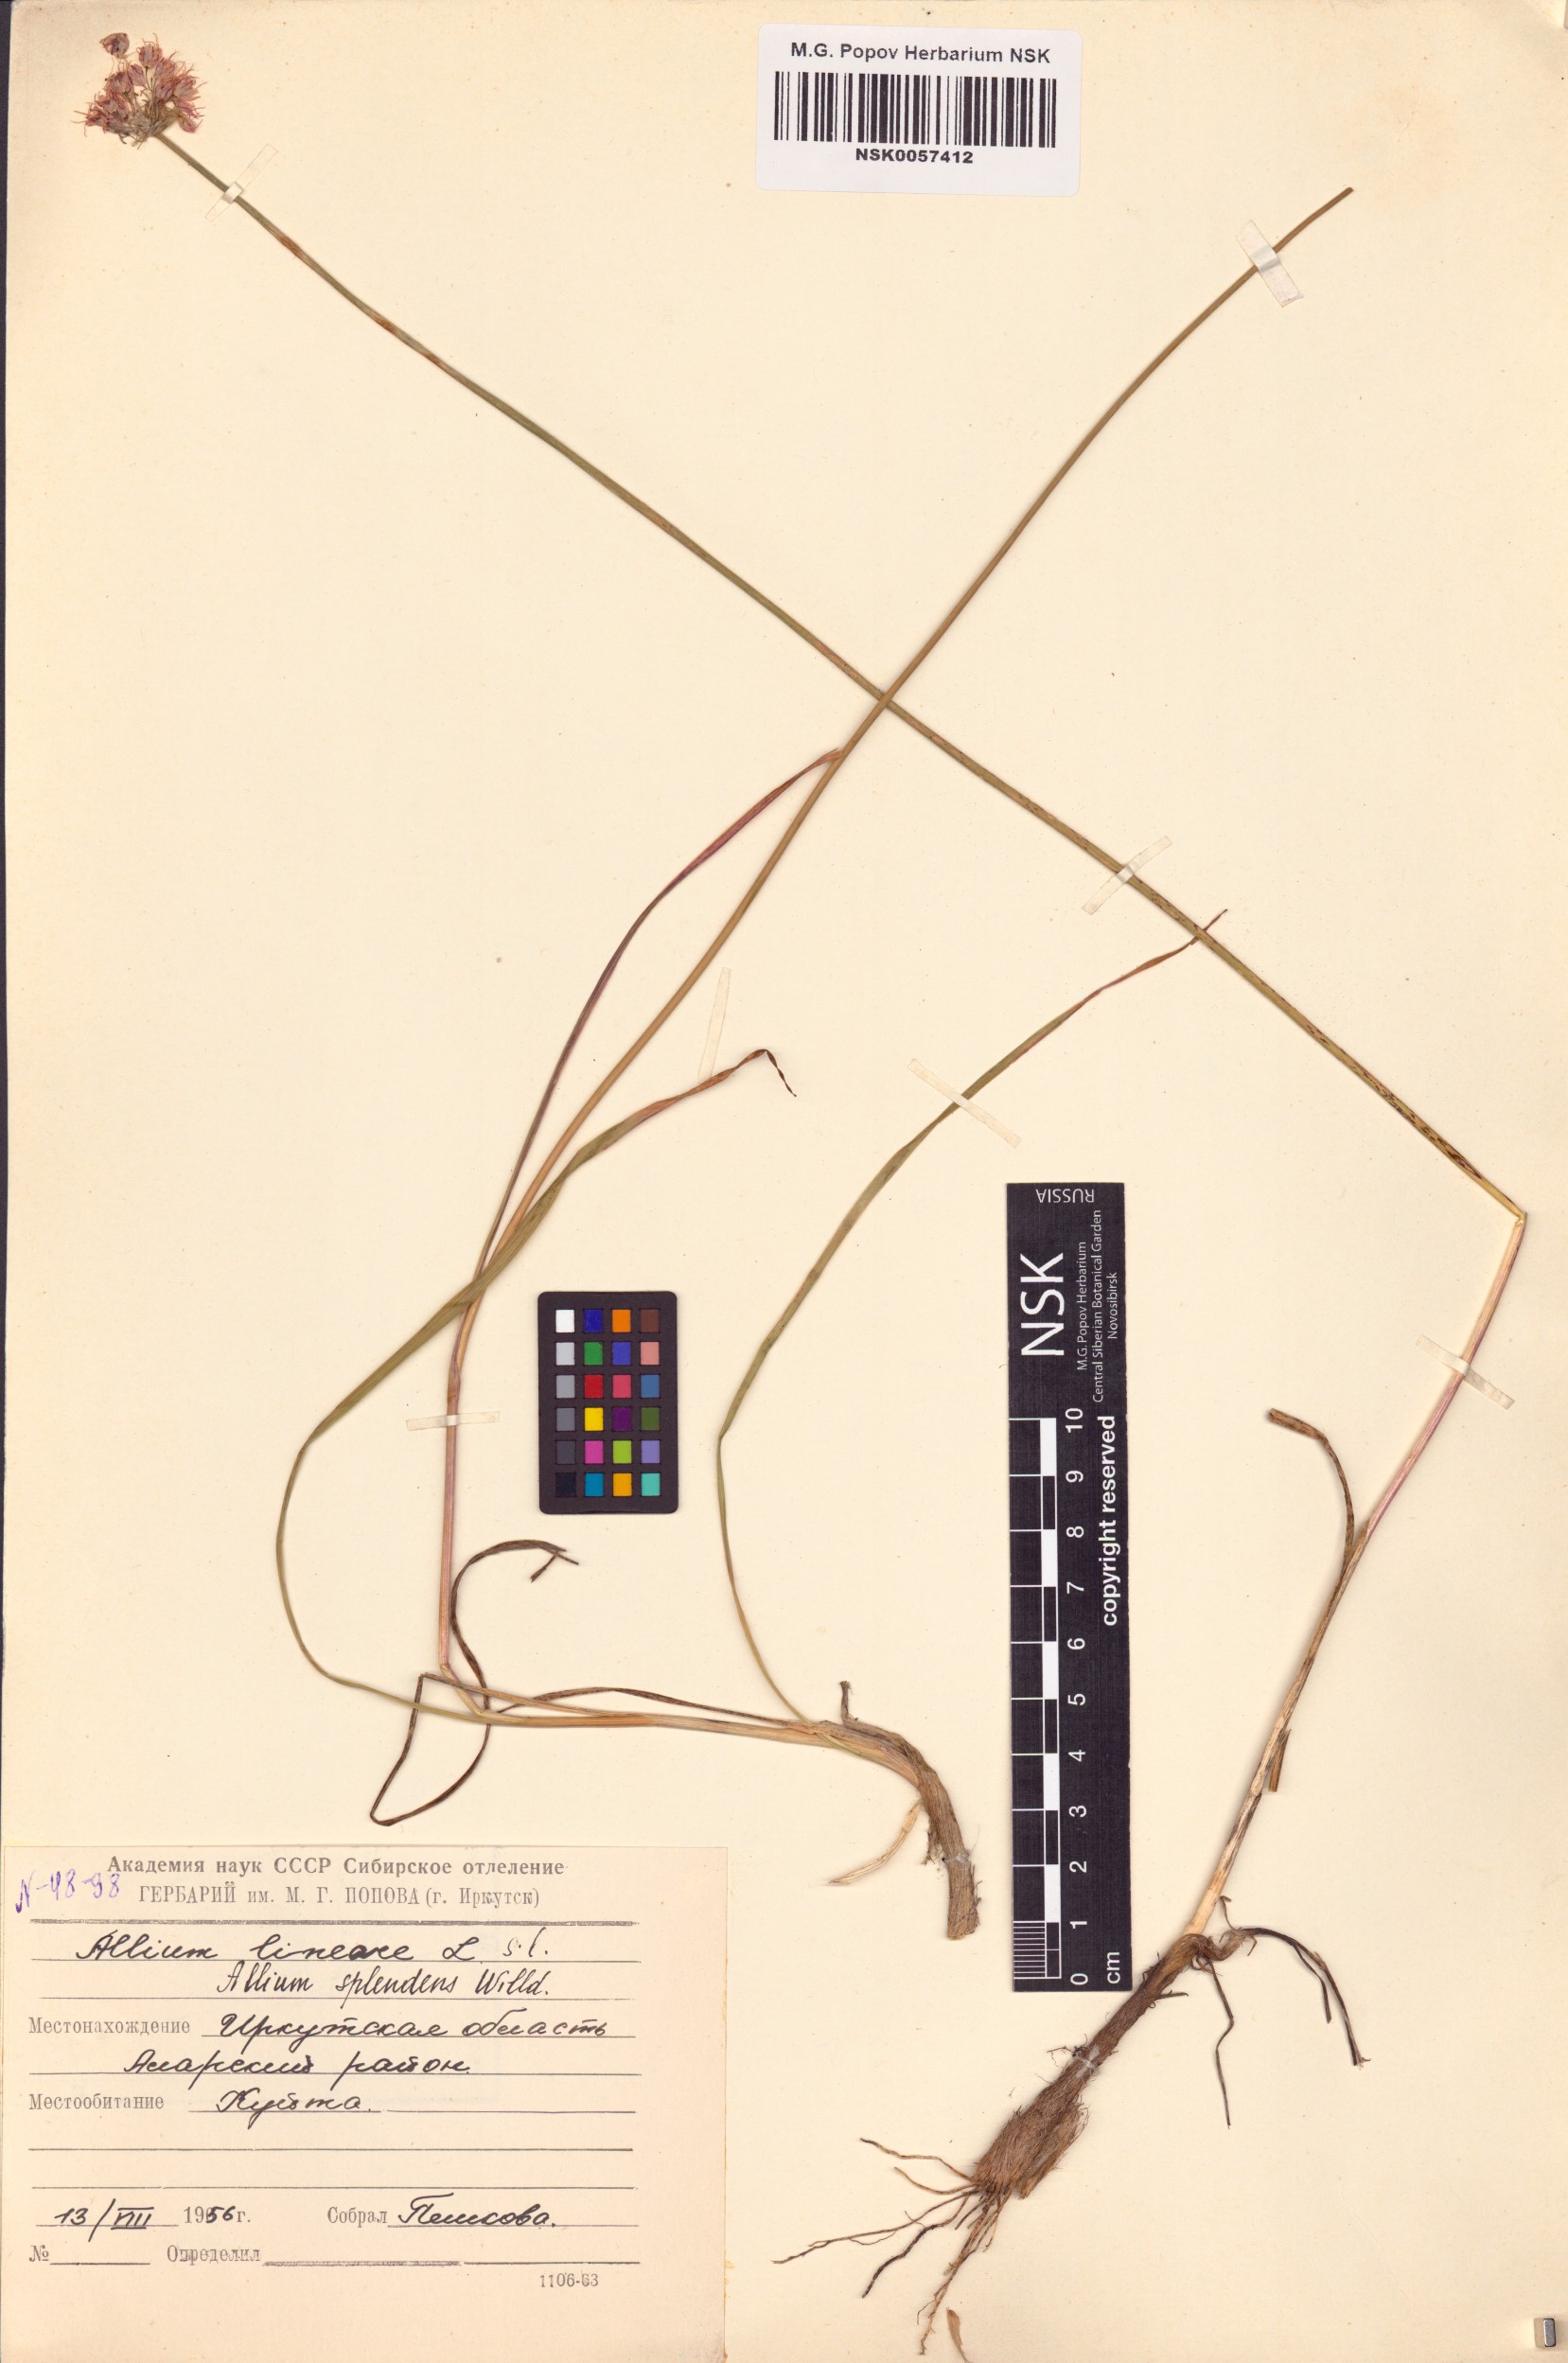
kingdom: Plantae
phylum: Tracheophyta
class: Liliopsida
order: Asparagales
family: Amaryllidaceae
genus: Allium
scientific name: Allium splendens
